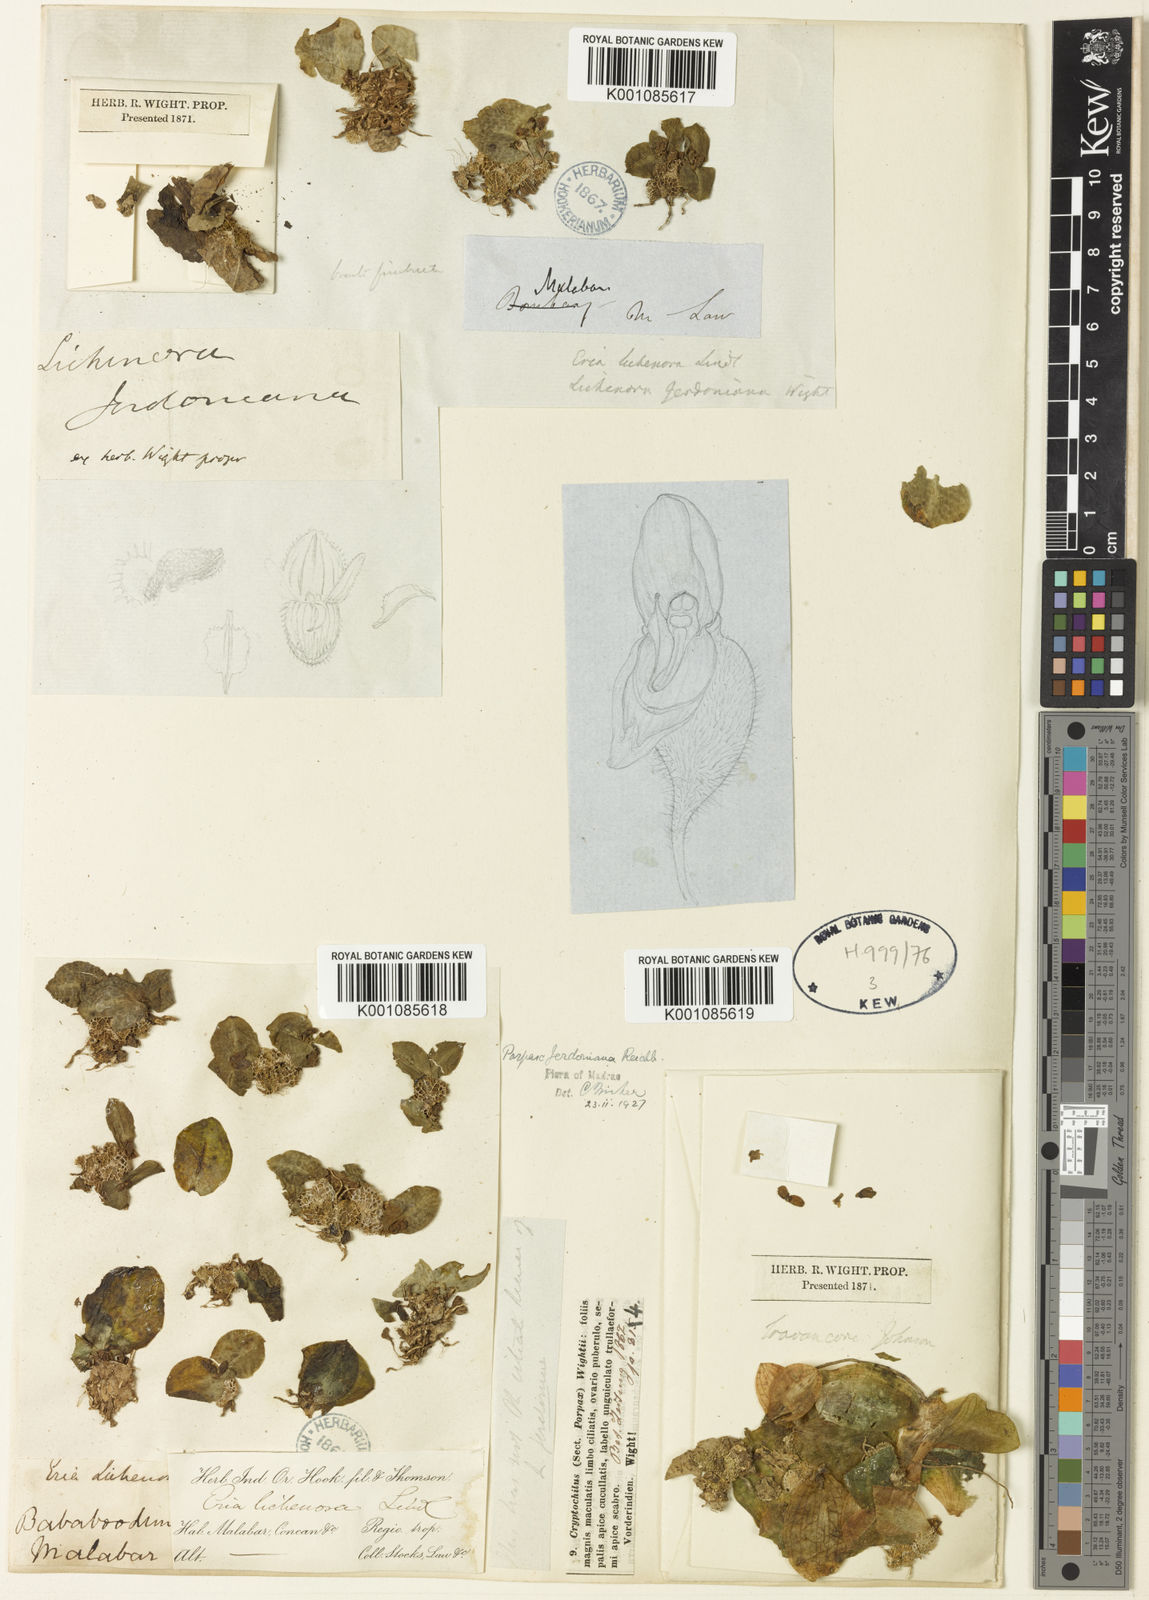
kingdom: Plantae
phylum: Tracheophyta
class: Liliopsida
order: Asparagales
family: Orchidaceae
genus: Porpax
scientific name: Porpax jerdoniana
